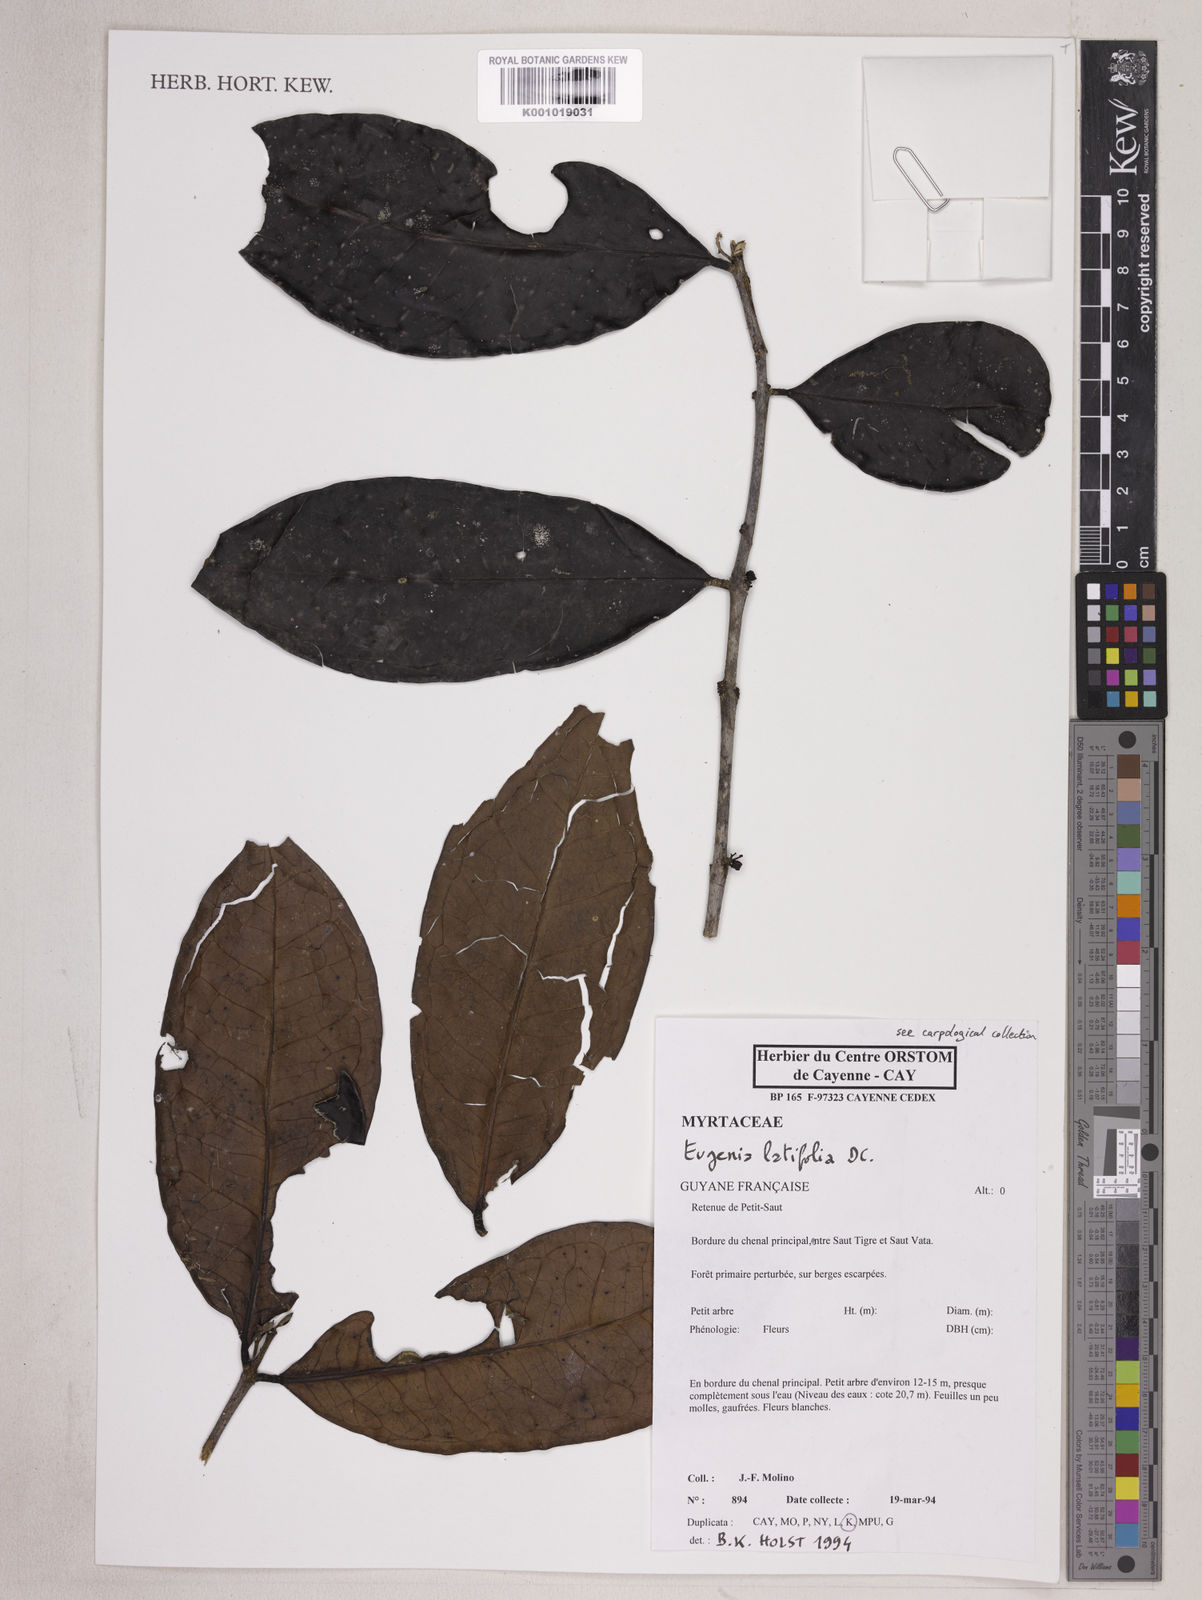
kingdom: Plantae
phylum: Tracheophyta
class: Magnoliopsida
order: Myrtales
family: Myrtaceae
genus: Eugenia
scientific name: Eugenia latifolia
